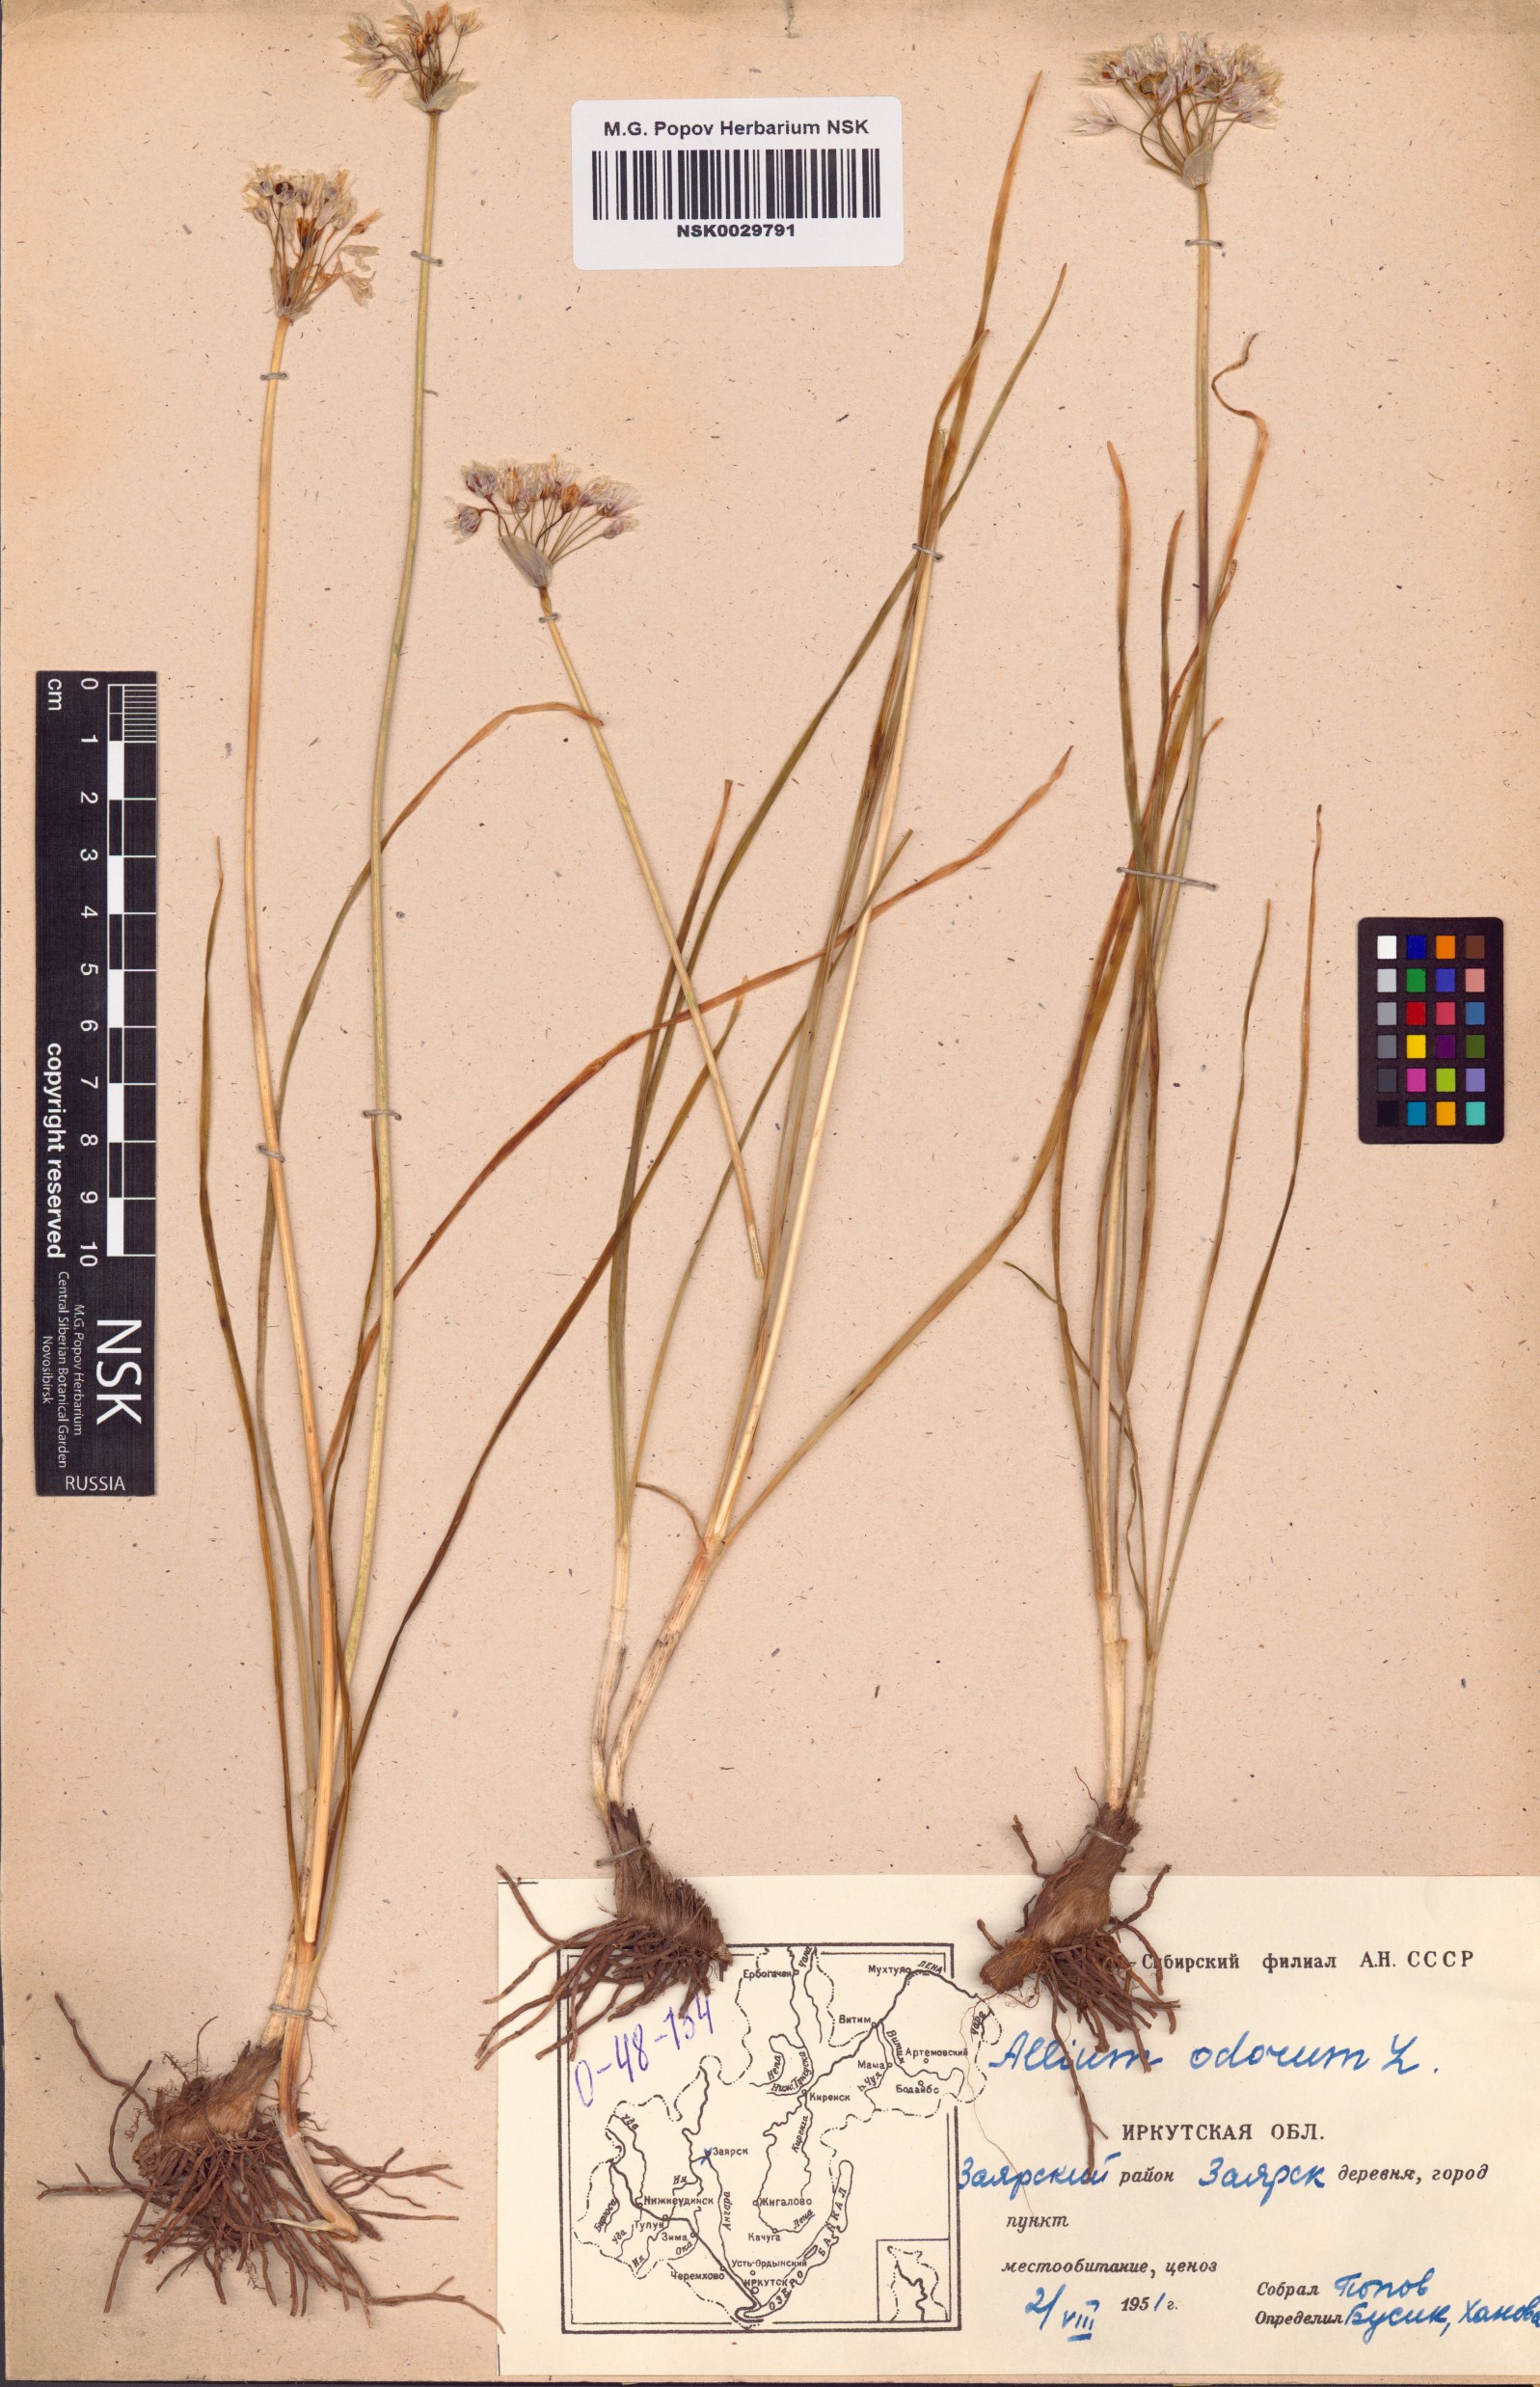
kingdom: Plantae
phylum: Tracheophyta
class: Liliopsida
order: Asparagales
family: Amaryllidaceae
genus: Allium
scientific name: Allium ramosum
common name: Fragrant garlic
